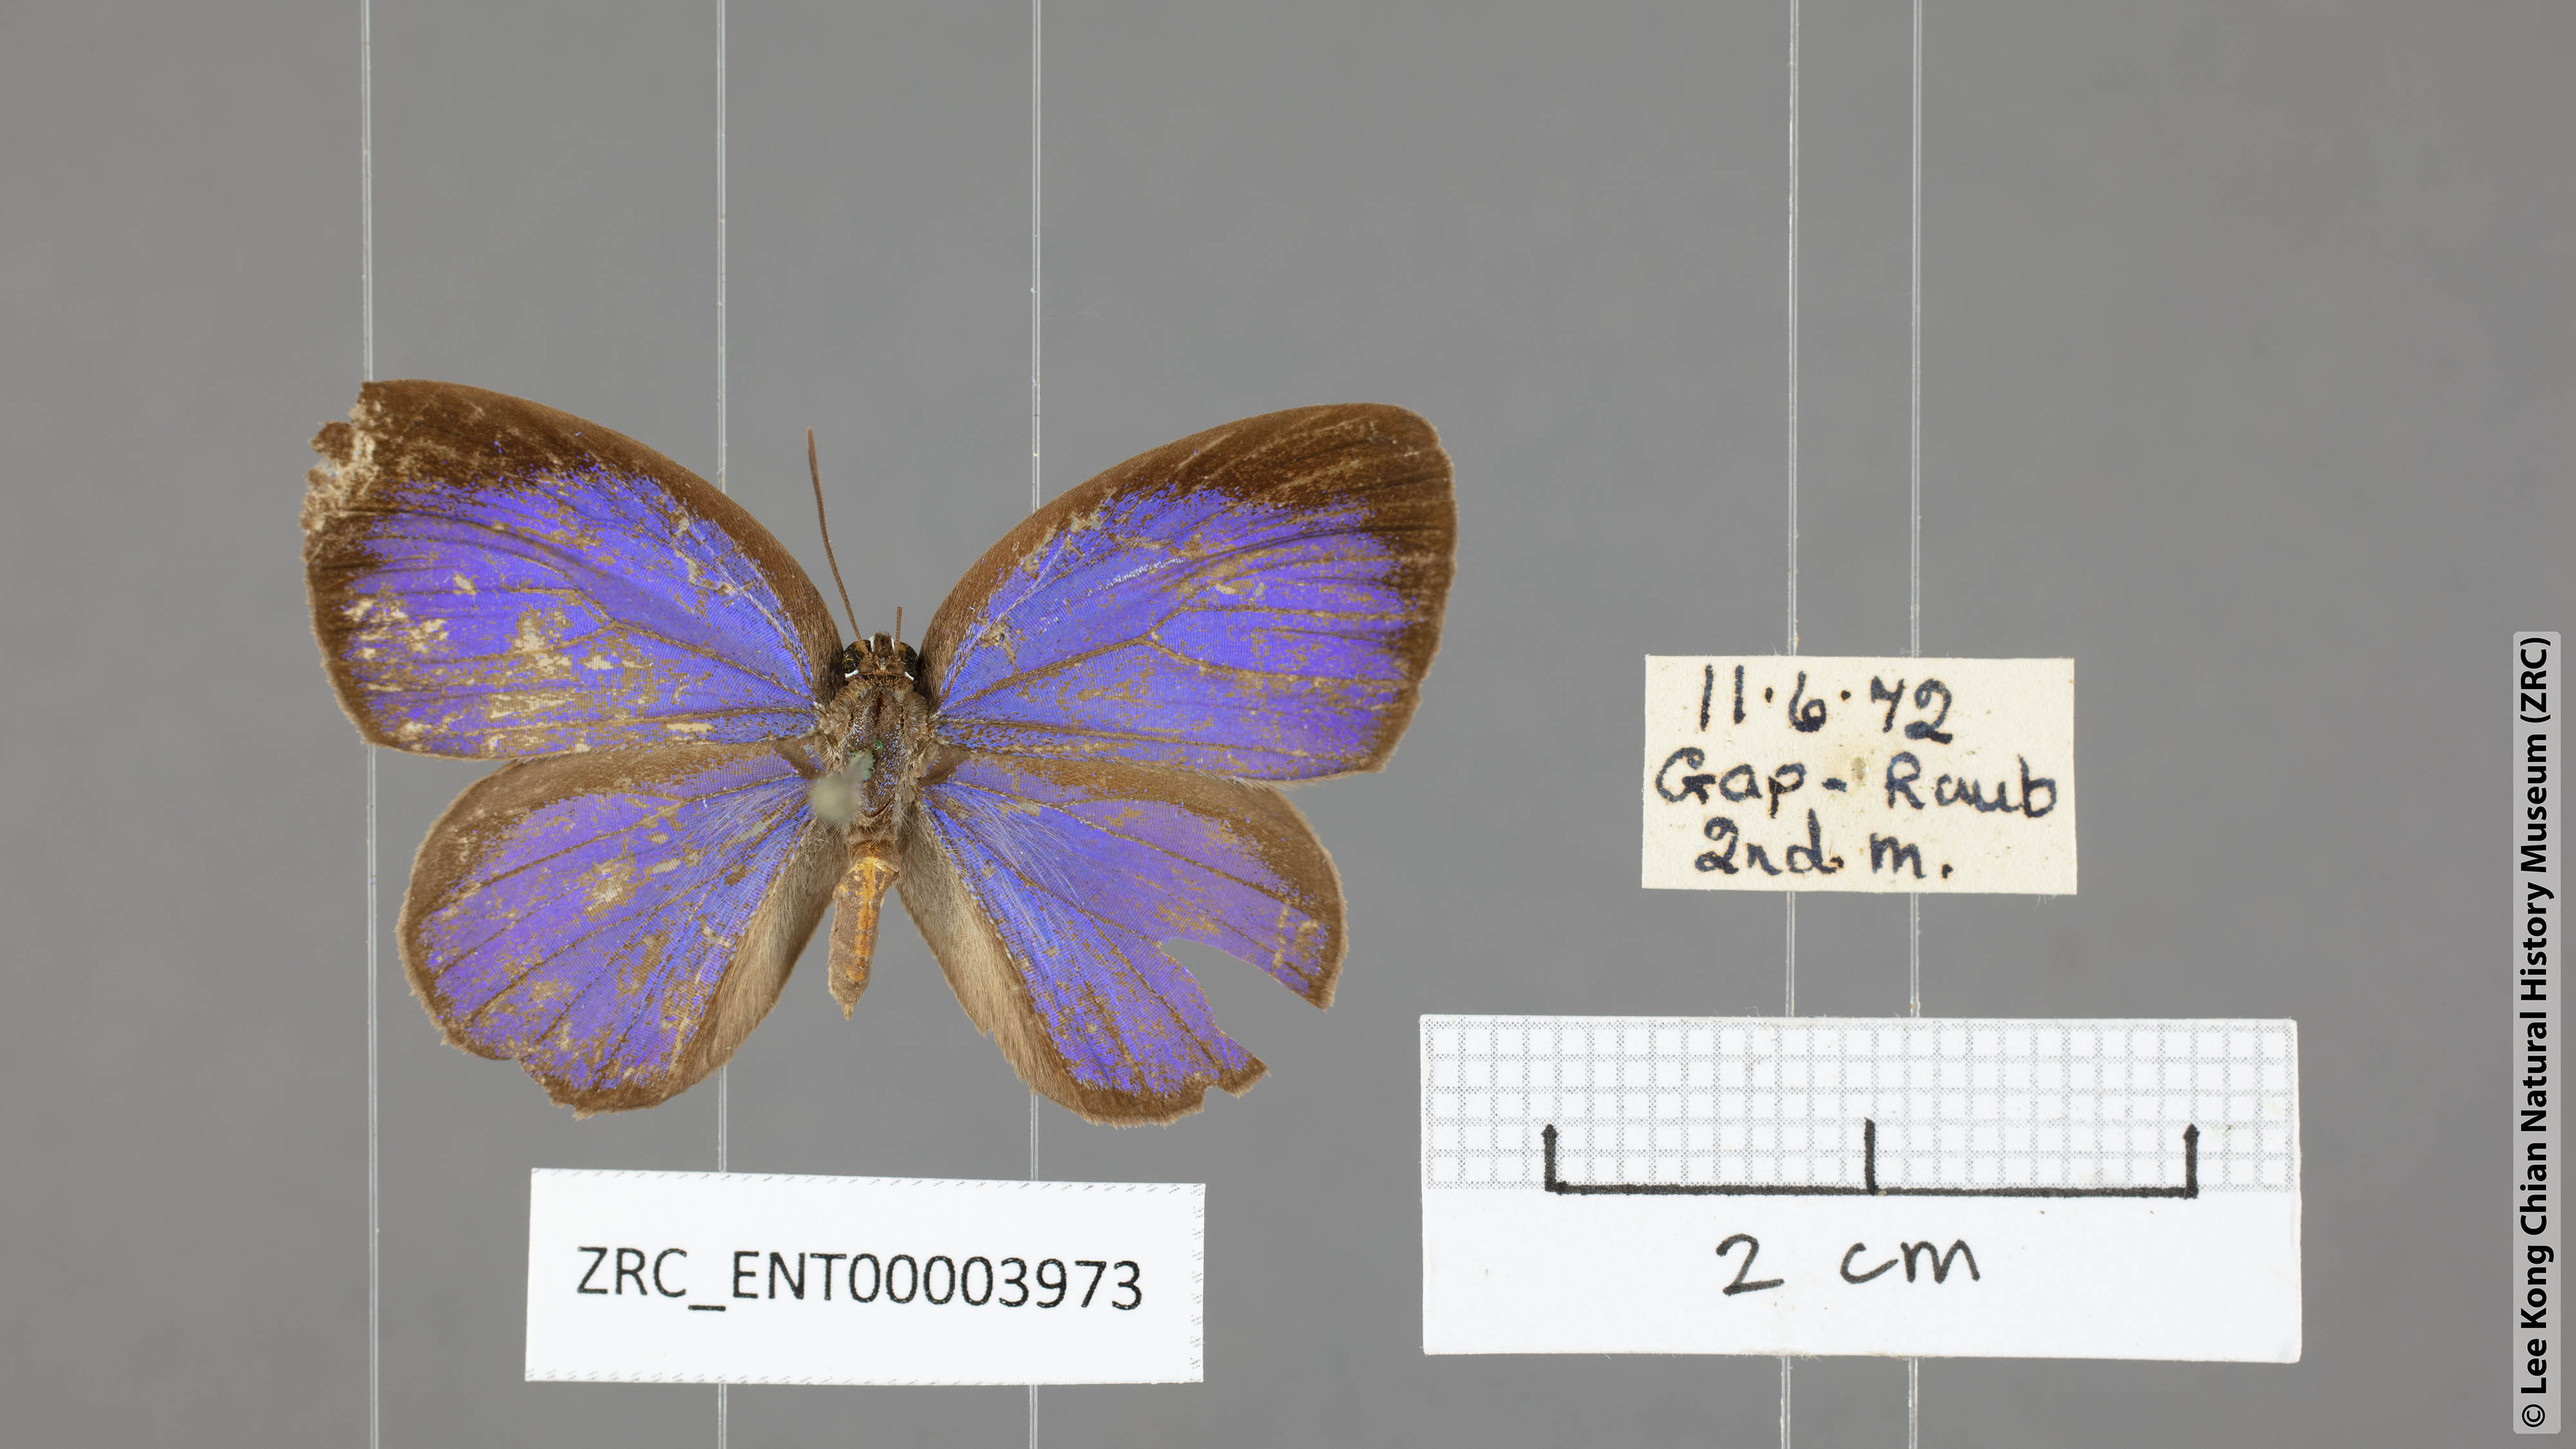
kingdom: Animalia
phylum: Arthropoda
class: Insecta
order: Lepidoptera
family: Lycaenidae
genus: Arhopala
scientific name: Arhopala inornata
